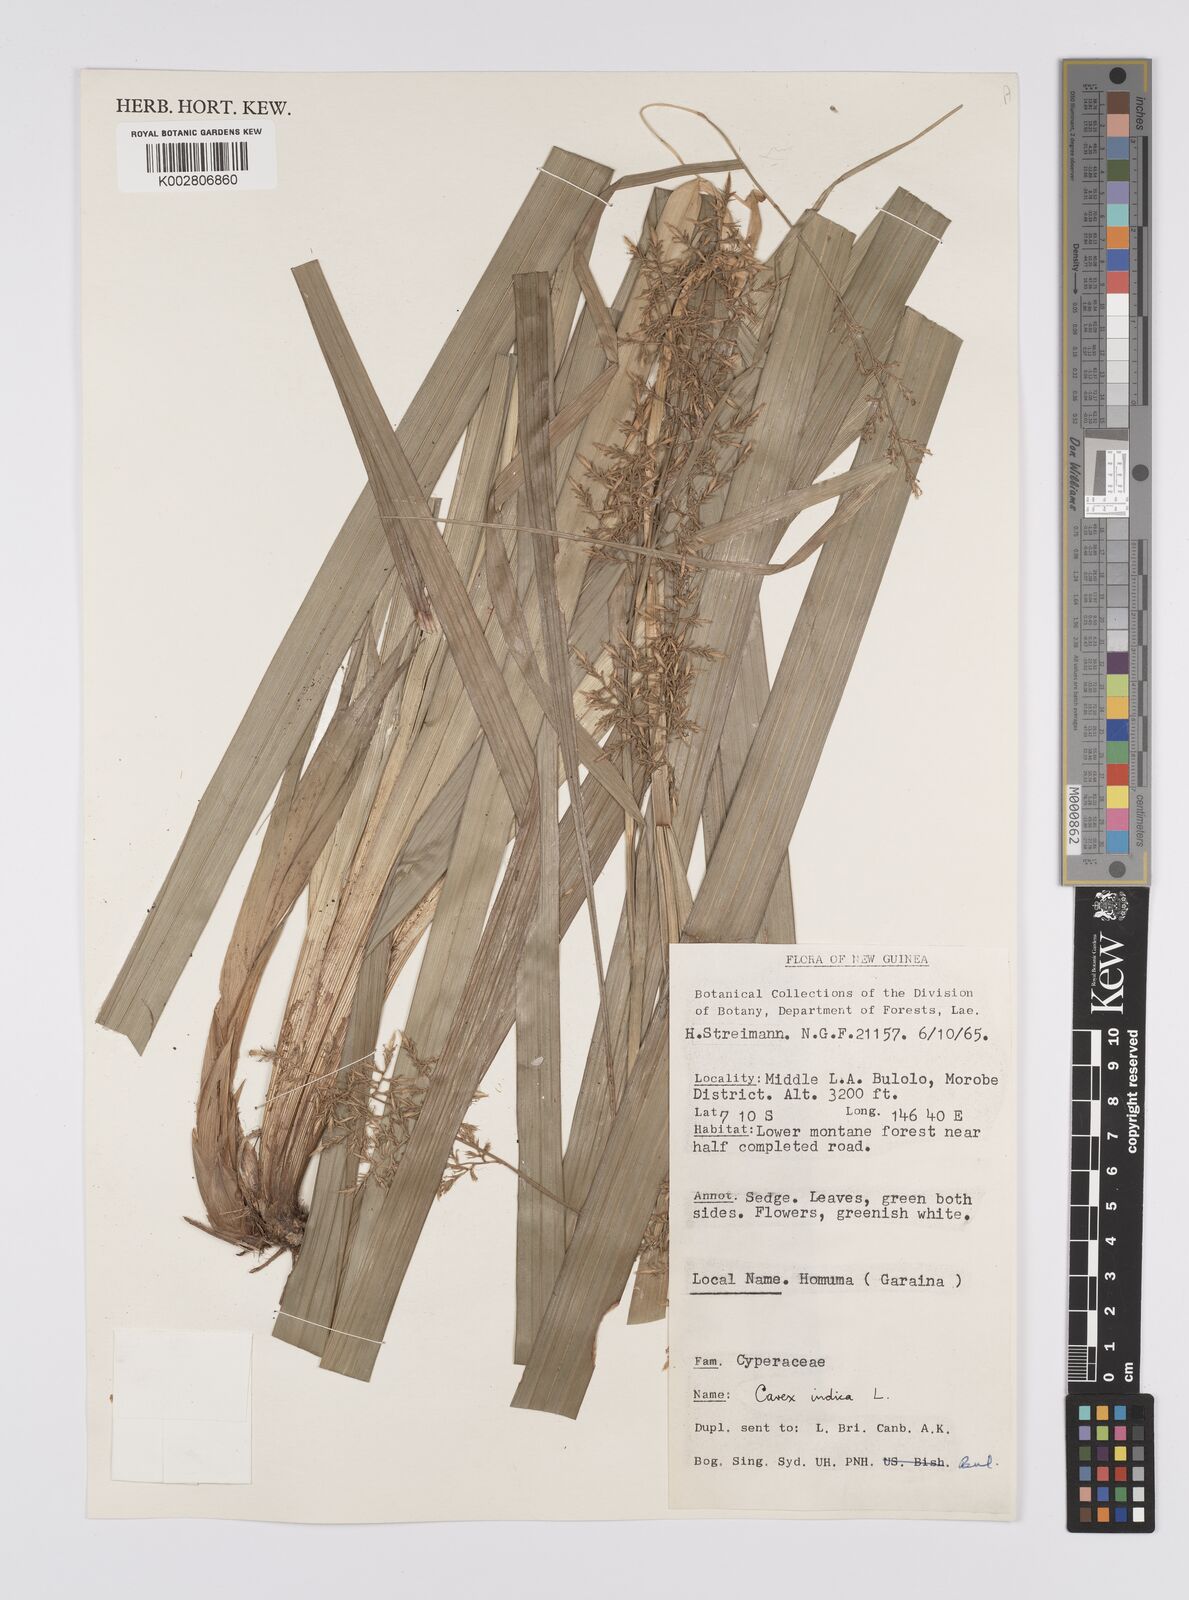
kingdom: Plantae
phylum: Tracheophyta
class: Liliopsida
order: Poales
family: Cyperaceae
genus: Carex
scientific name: Carex indica
